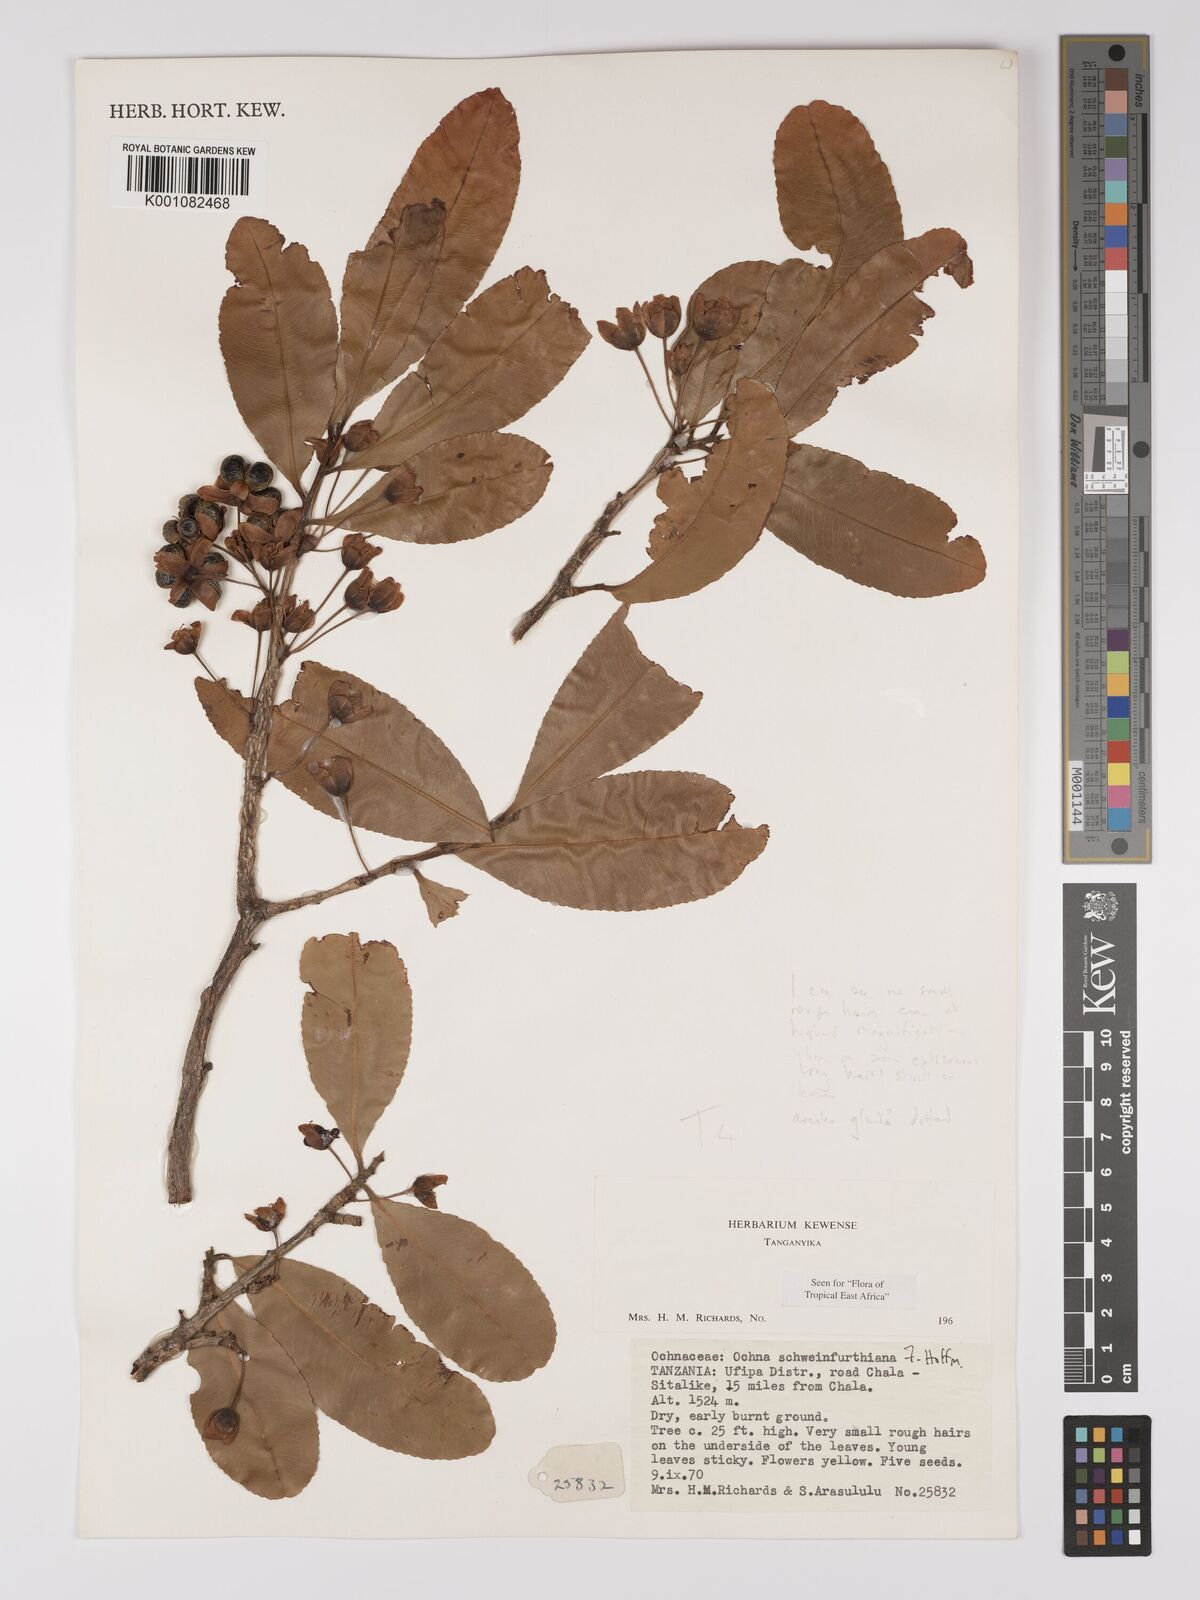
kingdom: Plantae
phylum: Tracheophyta
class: Magnoliopsida
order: Malpighiales
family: Ochnaceae
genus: Ochna
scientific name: Ochna schweinfurthiana
